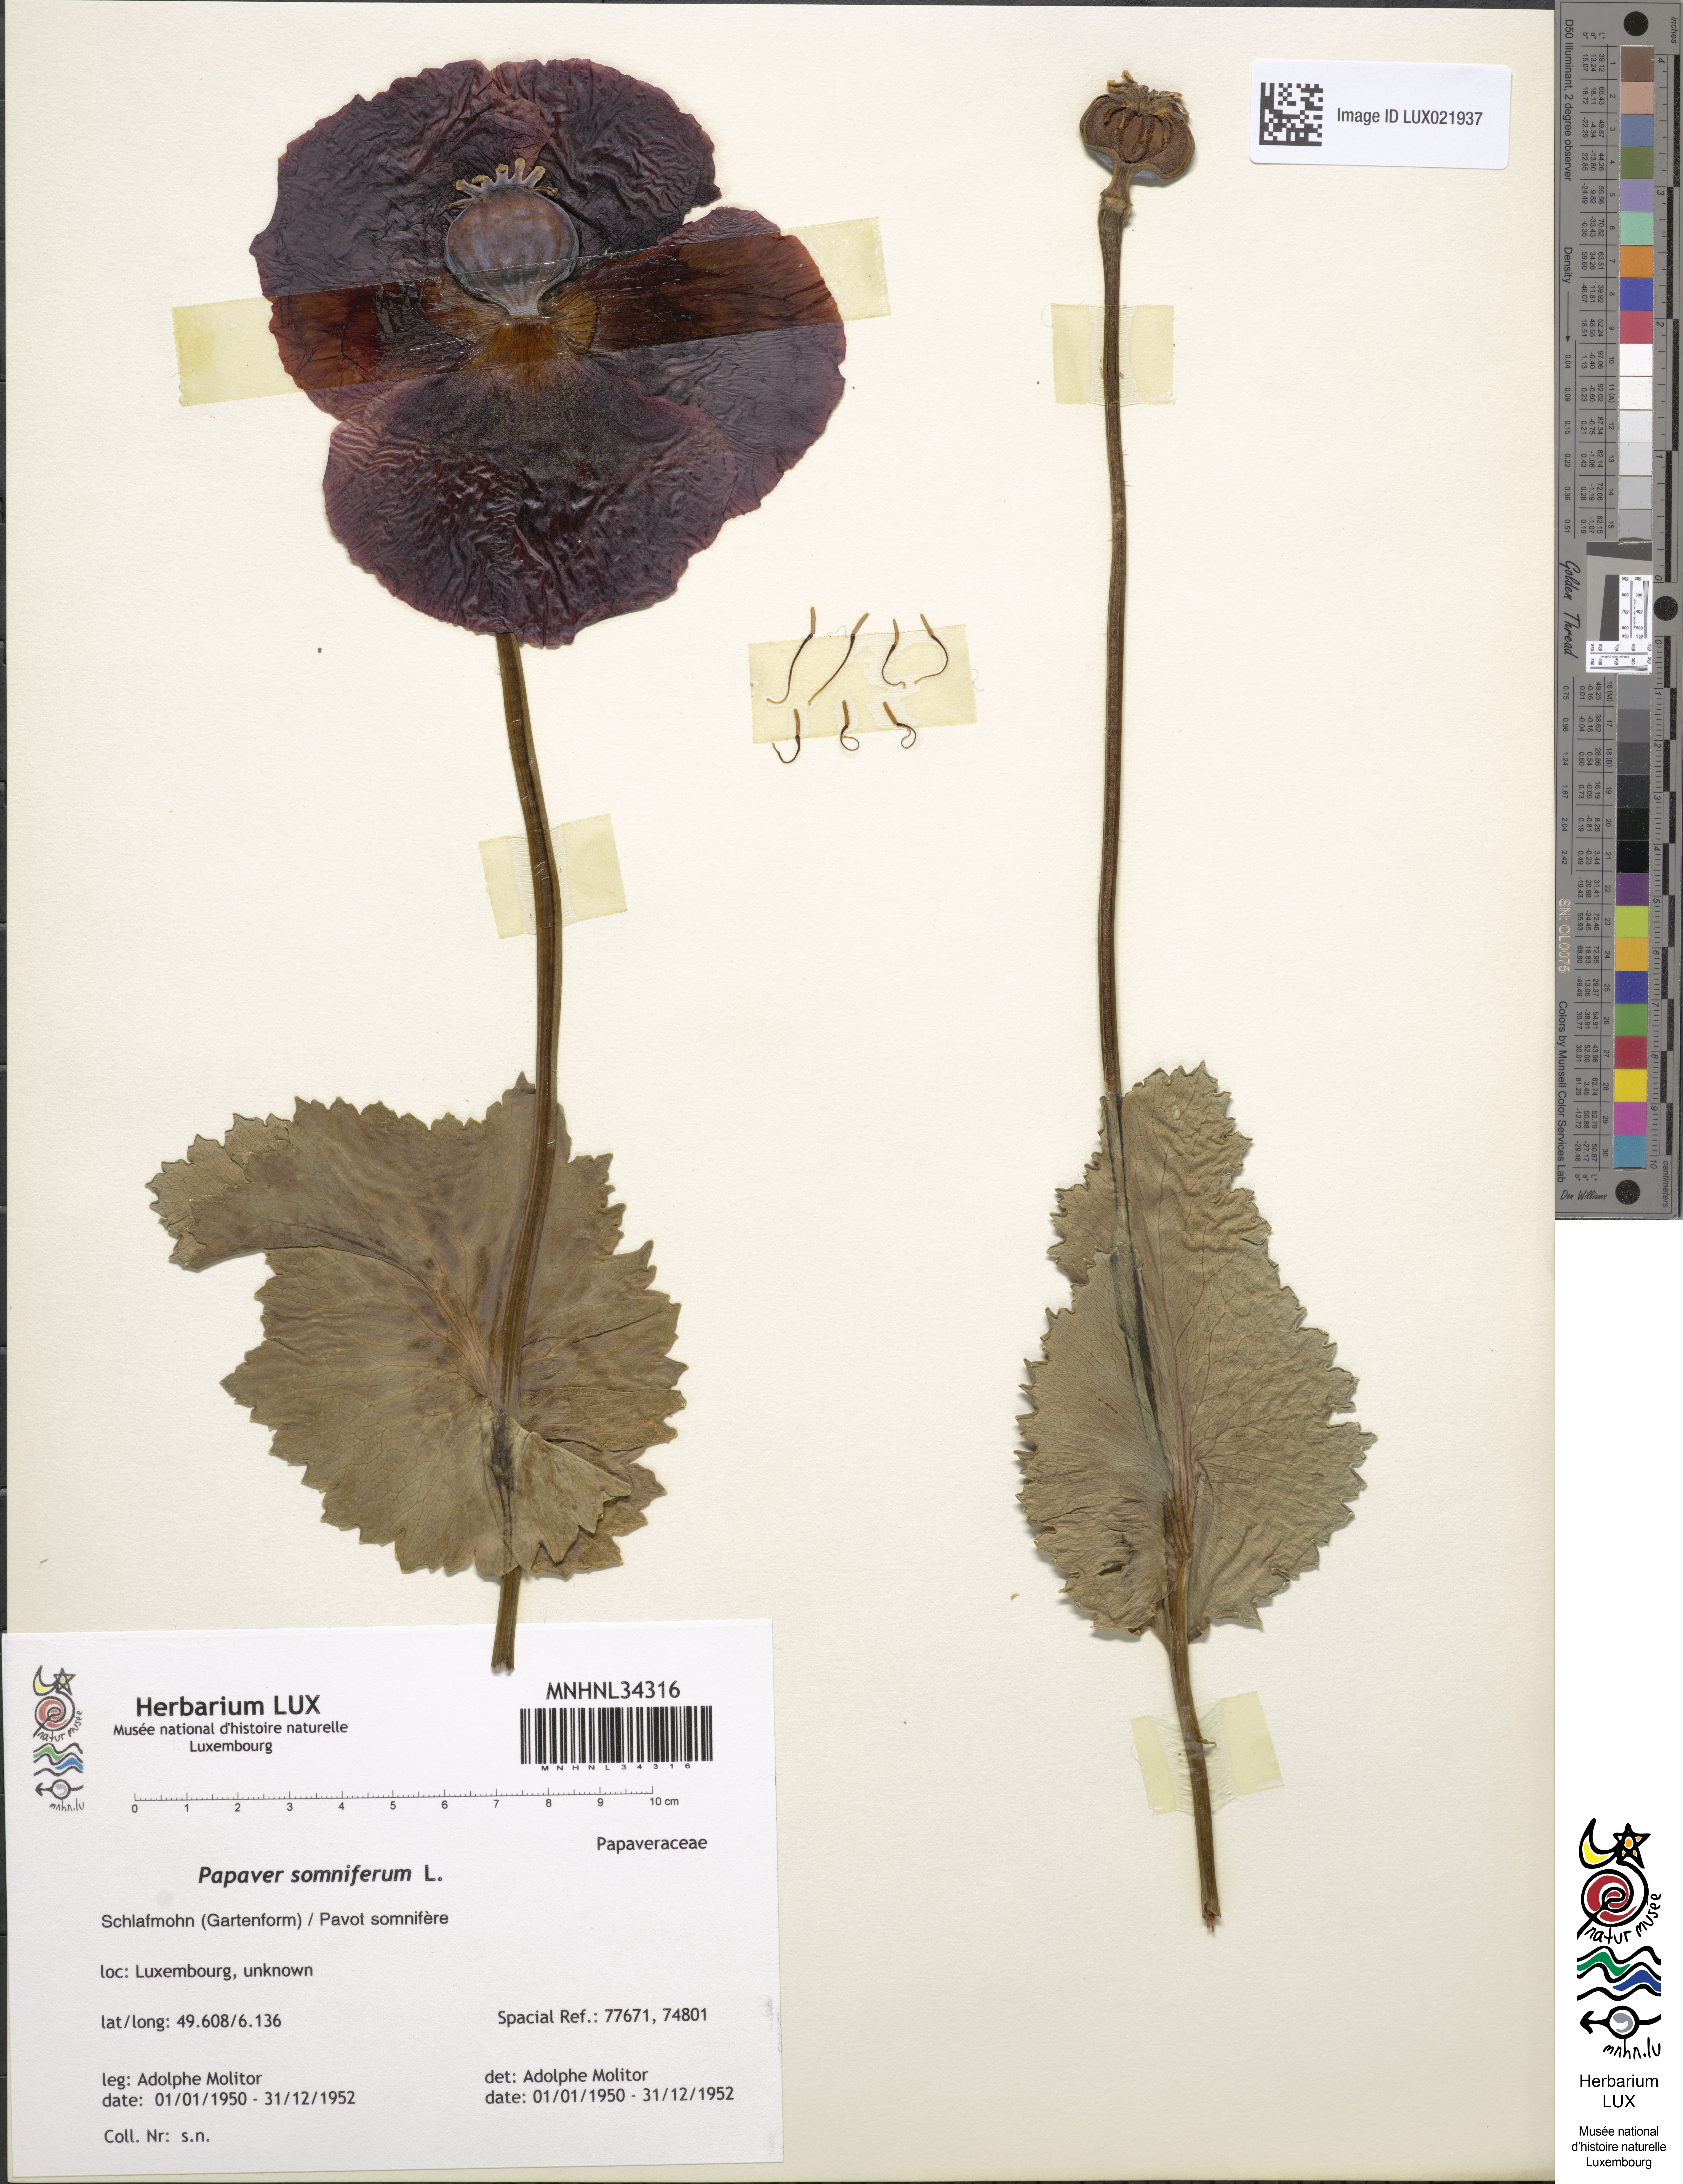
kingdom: Plantae
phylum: Tracheophyta
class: Magnoliopsida
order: Ranunculales
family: Papaveraceae
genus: Papaver
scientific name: Papaver somniferum
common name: Opium poppy
